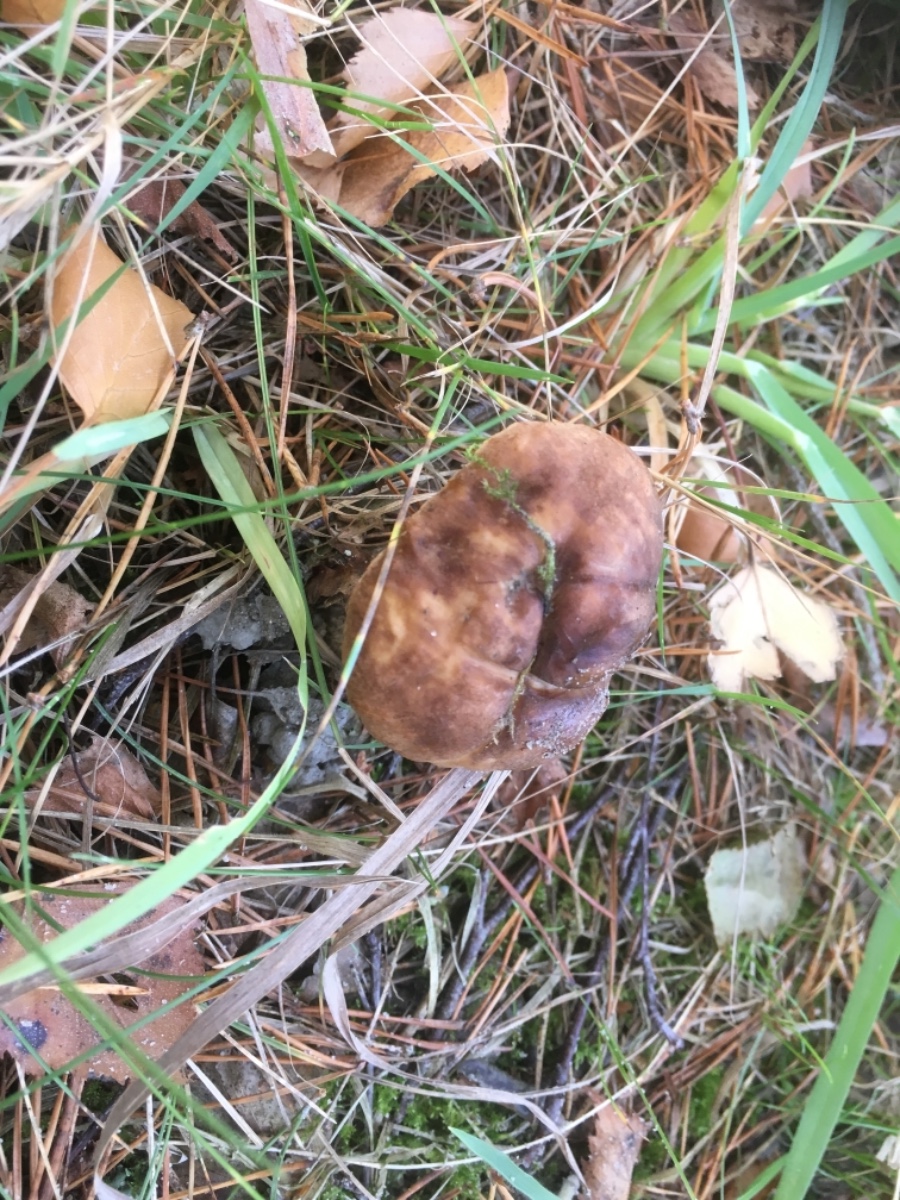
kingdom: Fungi
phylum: Basidiomycota
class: Agaricomycetes
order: Boletales
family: Boletaceae
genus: Leccinum
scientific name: Leccinum
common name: skælrørhat
